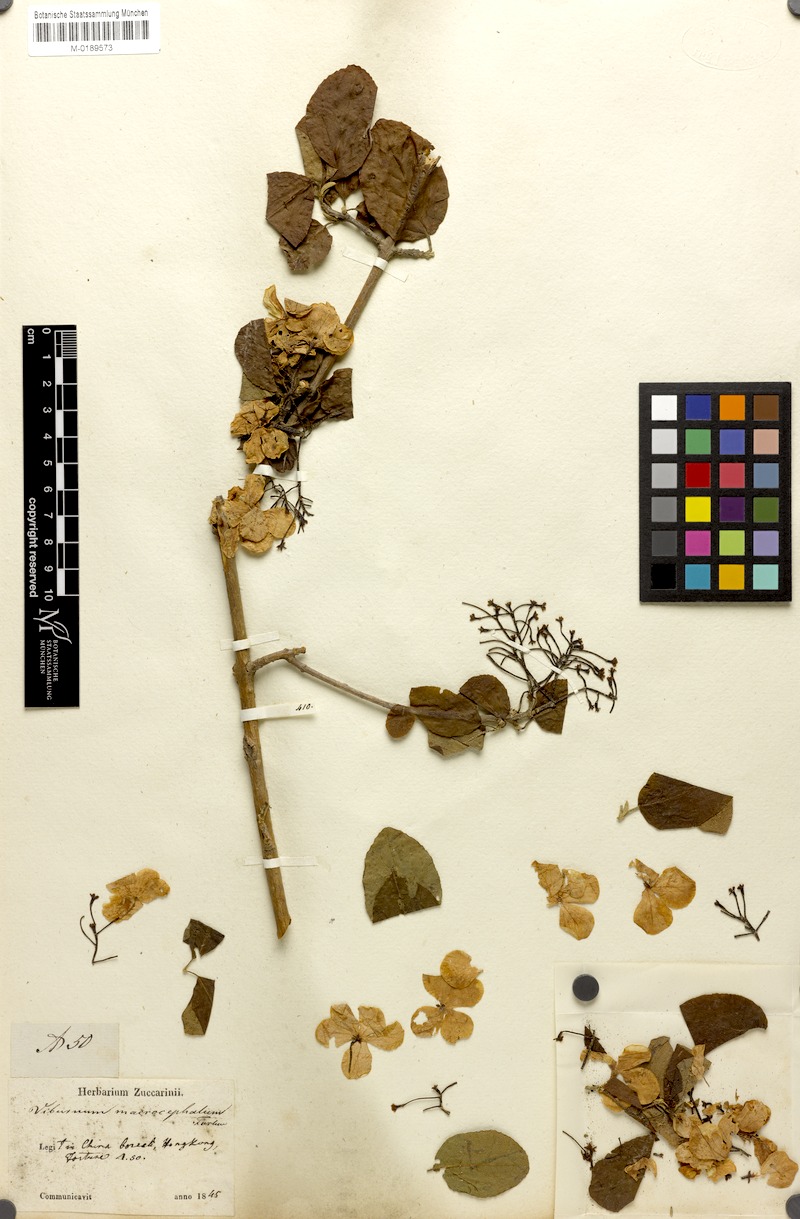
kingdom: Plantae
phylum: Tracheophyta
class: Magnoliopsida
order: Dipsacales
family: Viburnaceae
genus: Viburnum
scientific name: Viburnum macrocephalum
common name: Chinese snowball viburnum
